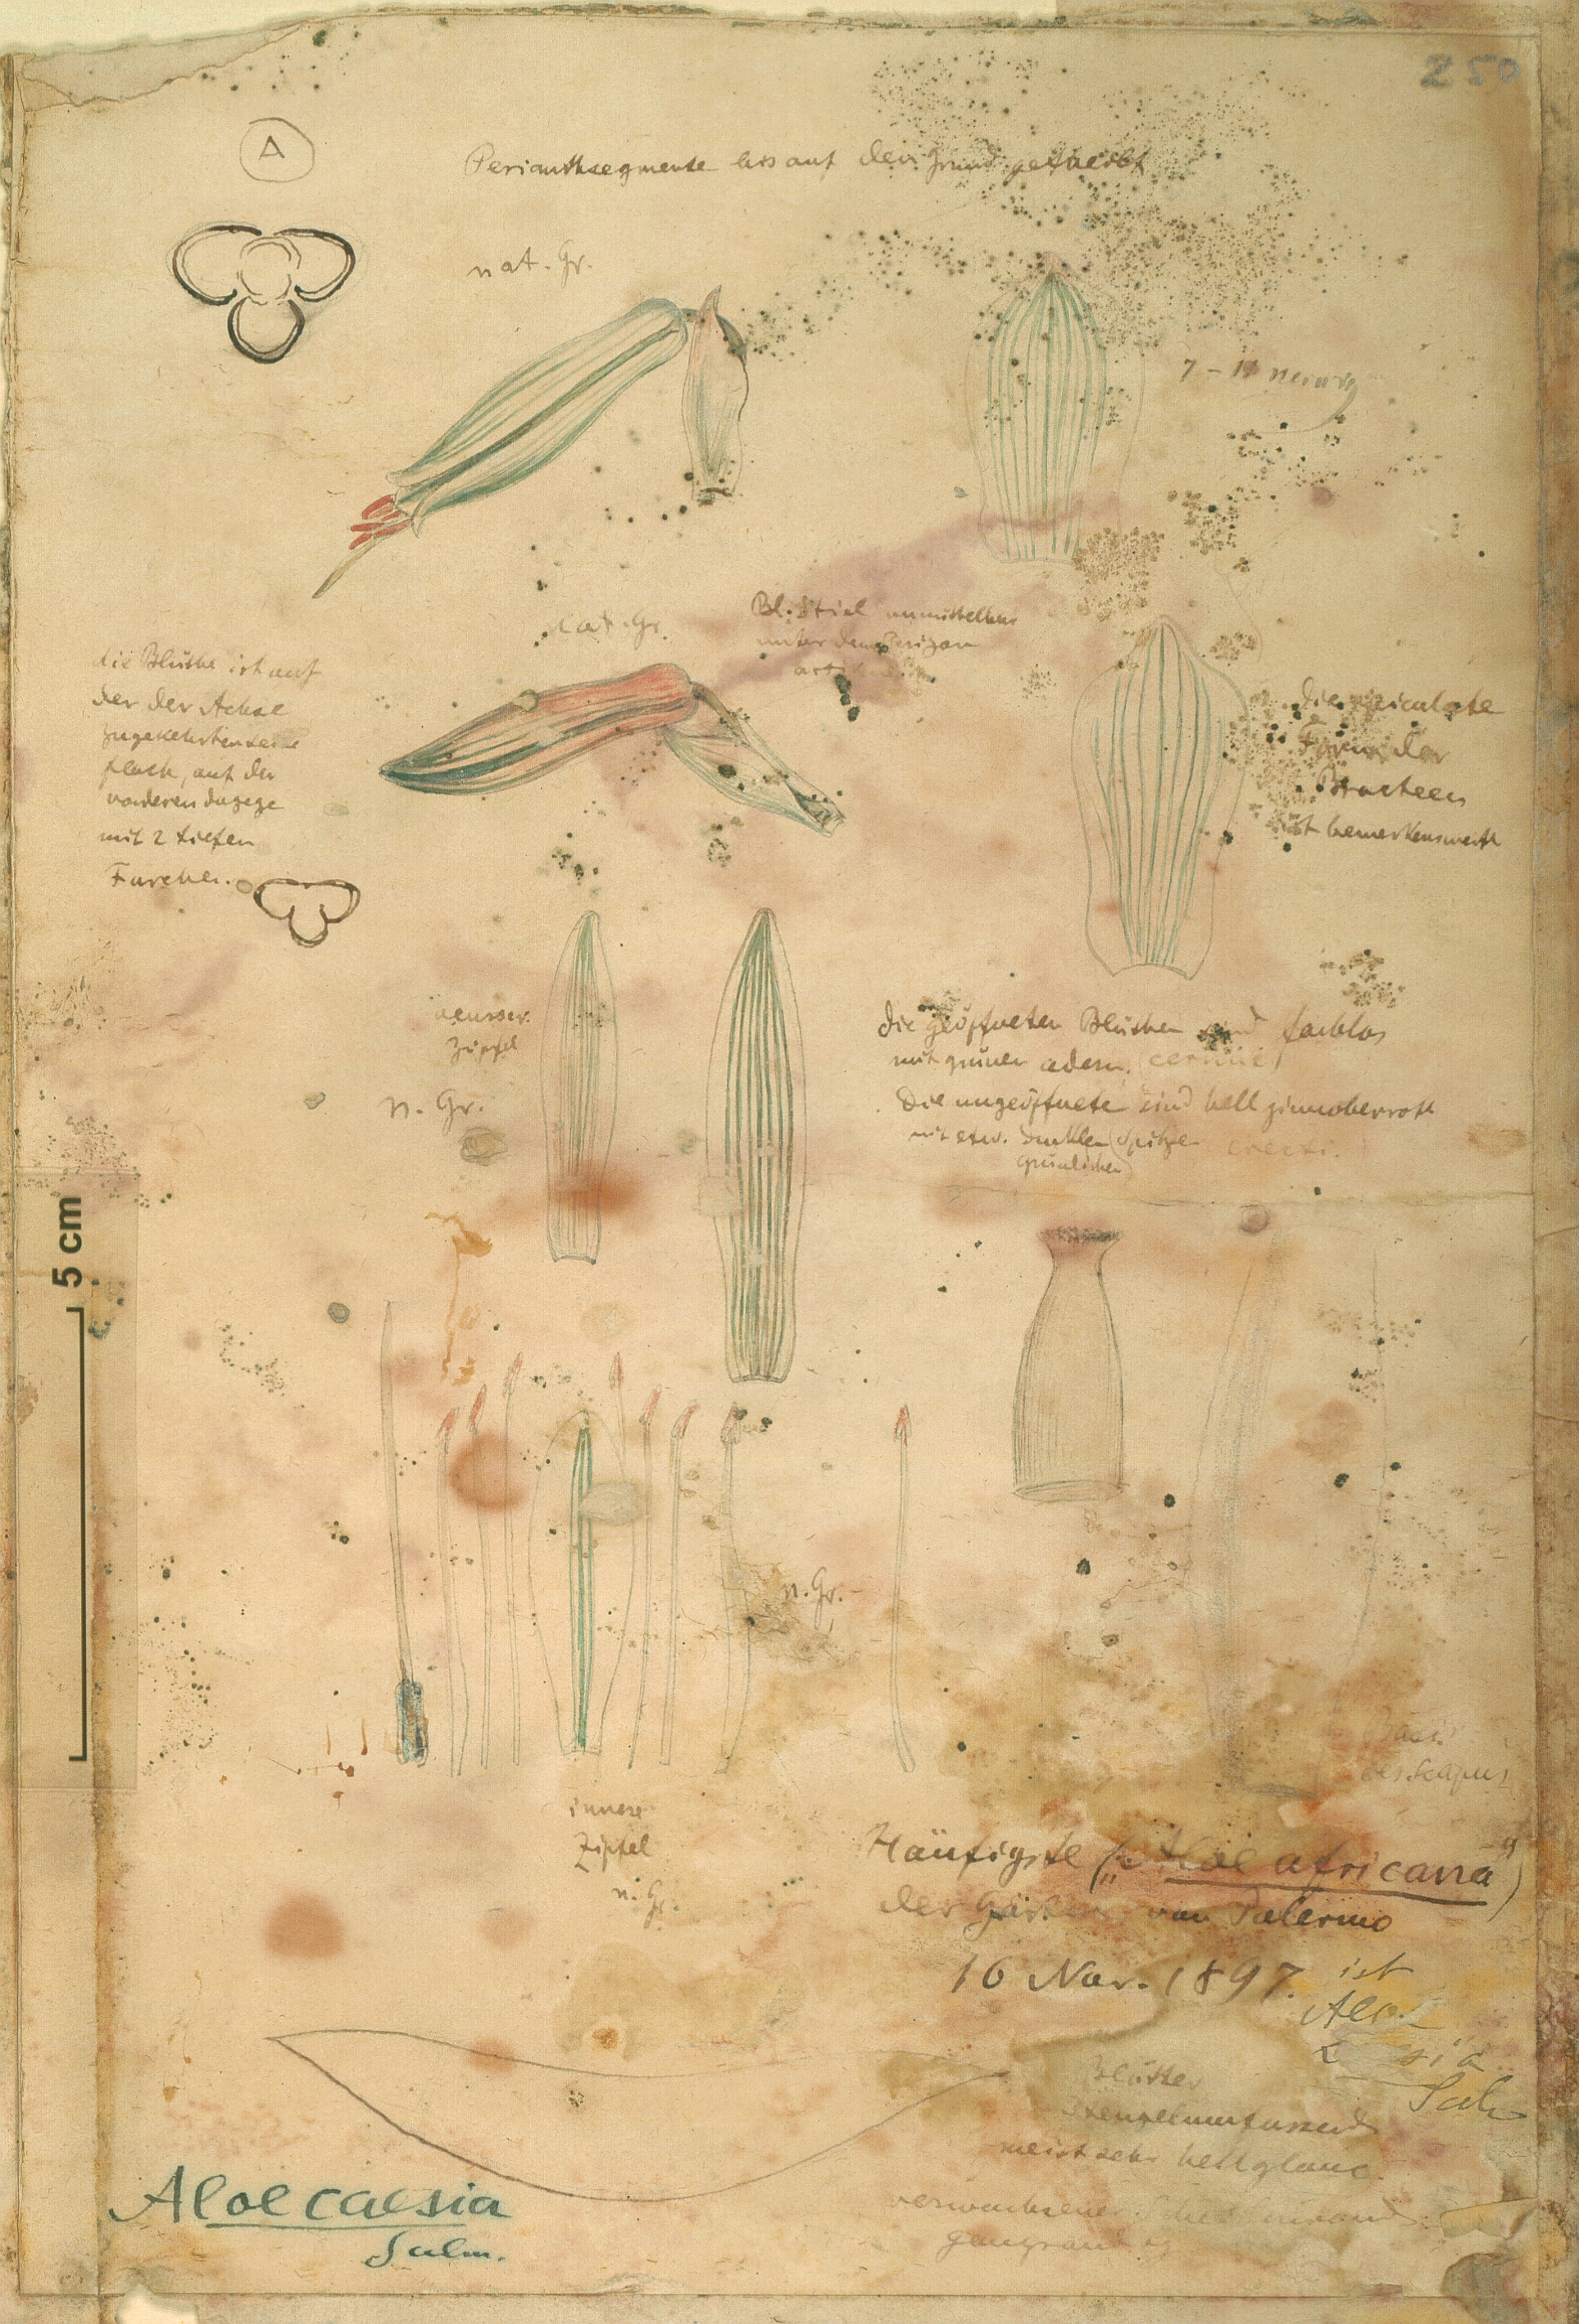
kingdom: Plantae
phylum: Tracheophyta
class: Liliopsida
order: Asparagales
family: Asphodelaceae
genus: Aloe
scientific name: Aloe caesia
